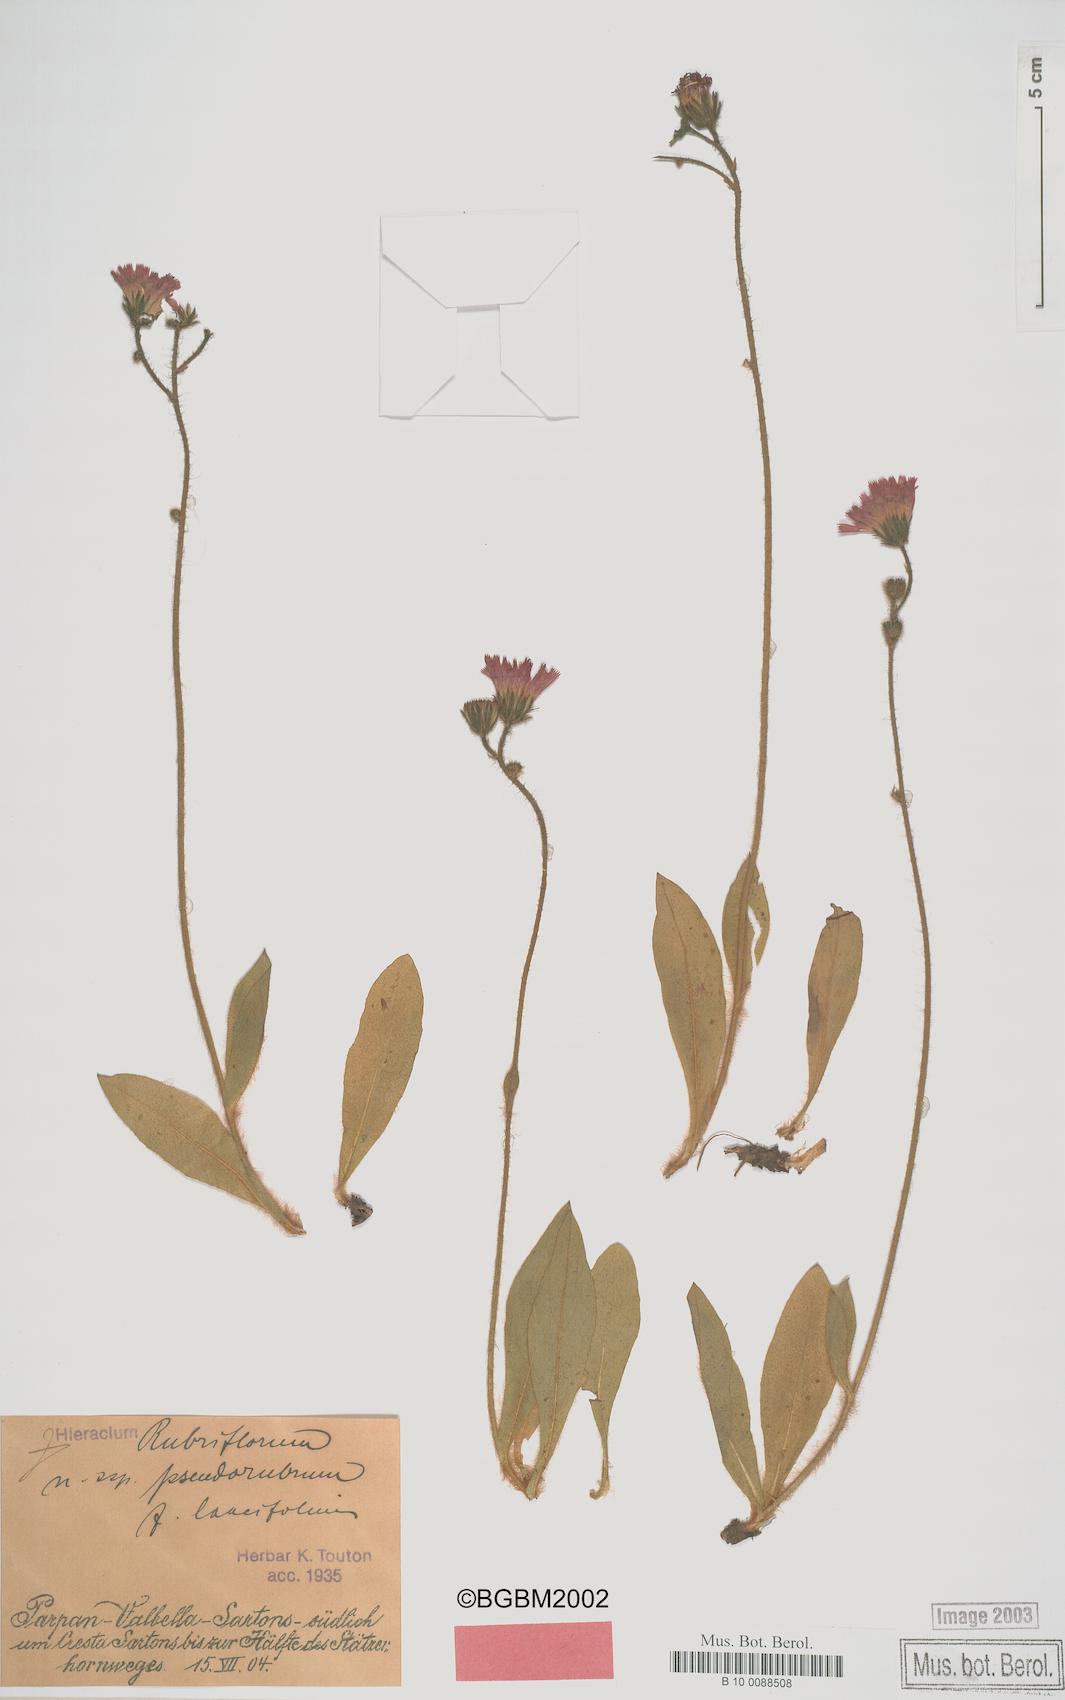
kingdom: Plantae
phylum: Tracheophyta
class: Magnoliopsida
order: Asterales
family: Asteraceae
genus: Pilosella
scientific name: Pilosella rubriflora
